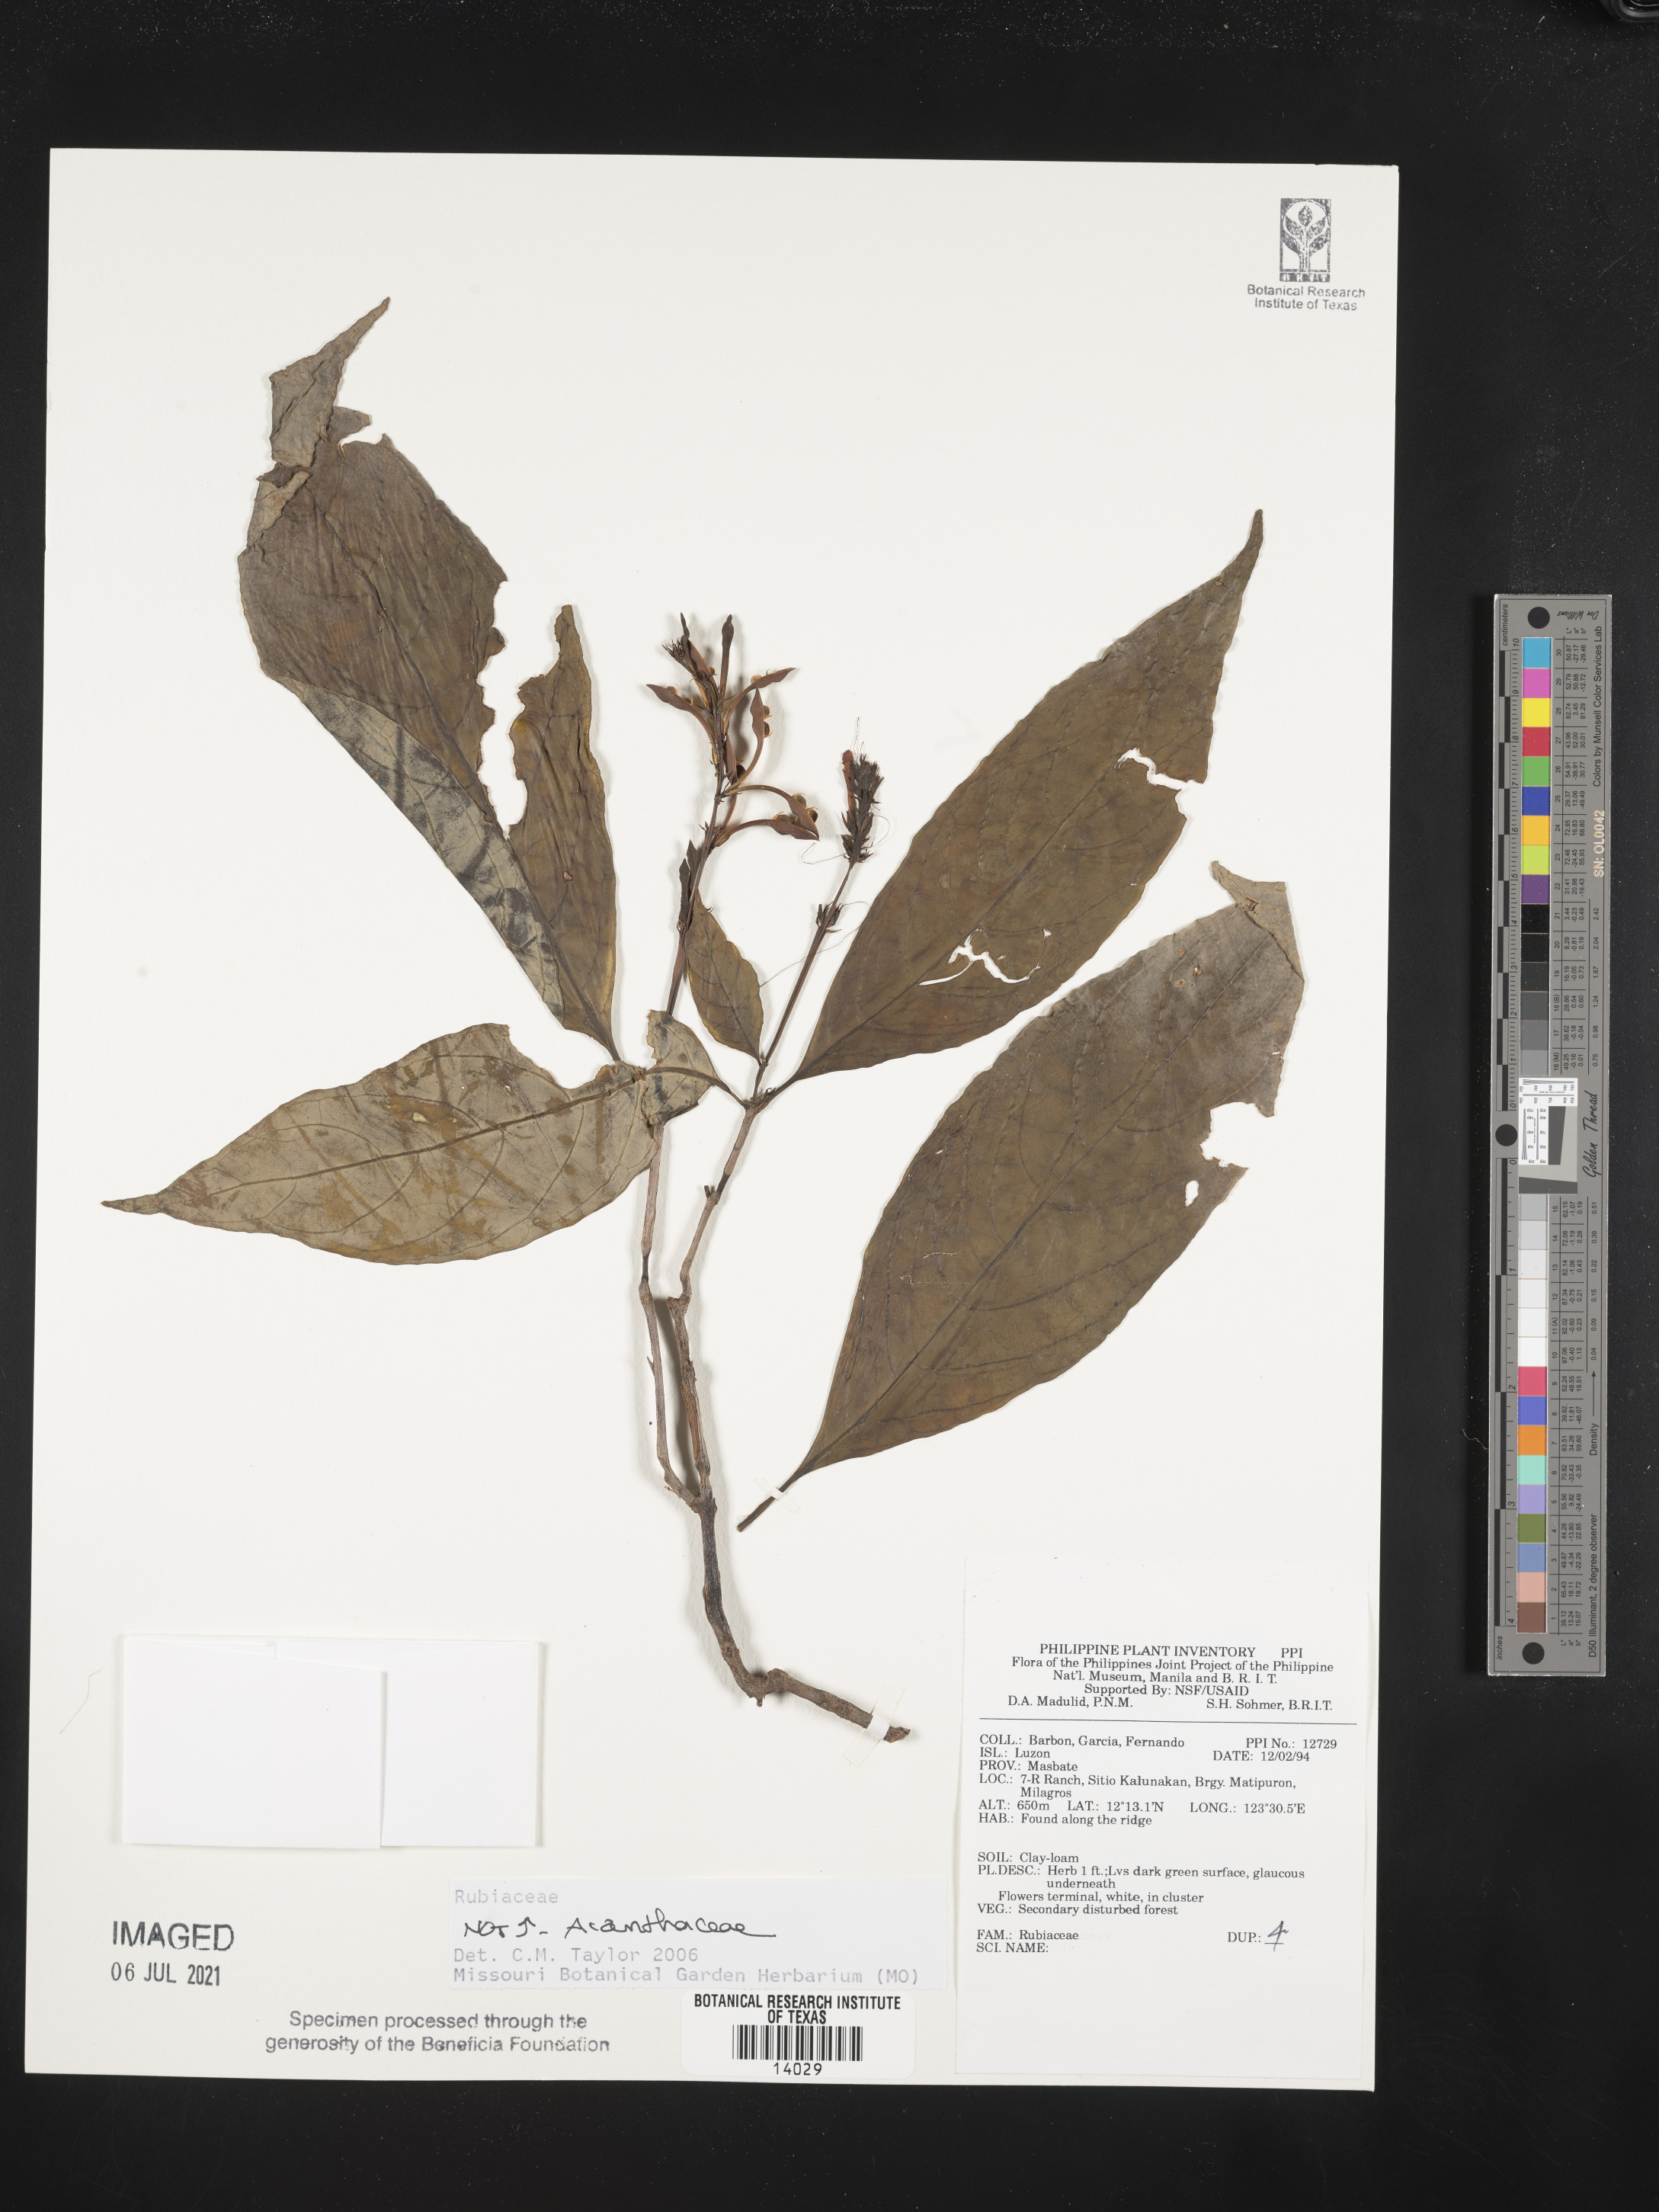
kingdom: Plantae
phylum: Tracheophyta
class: Magnoliopsida
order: Lamiales
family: Acanthaceae
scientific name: Acanthaceae
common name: Acanthaceae
